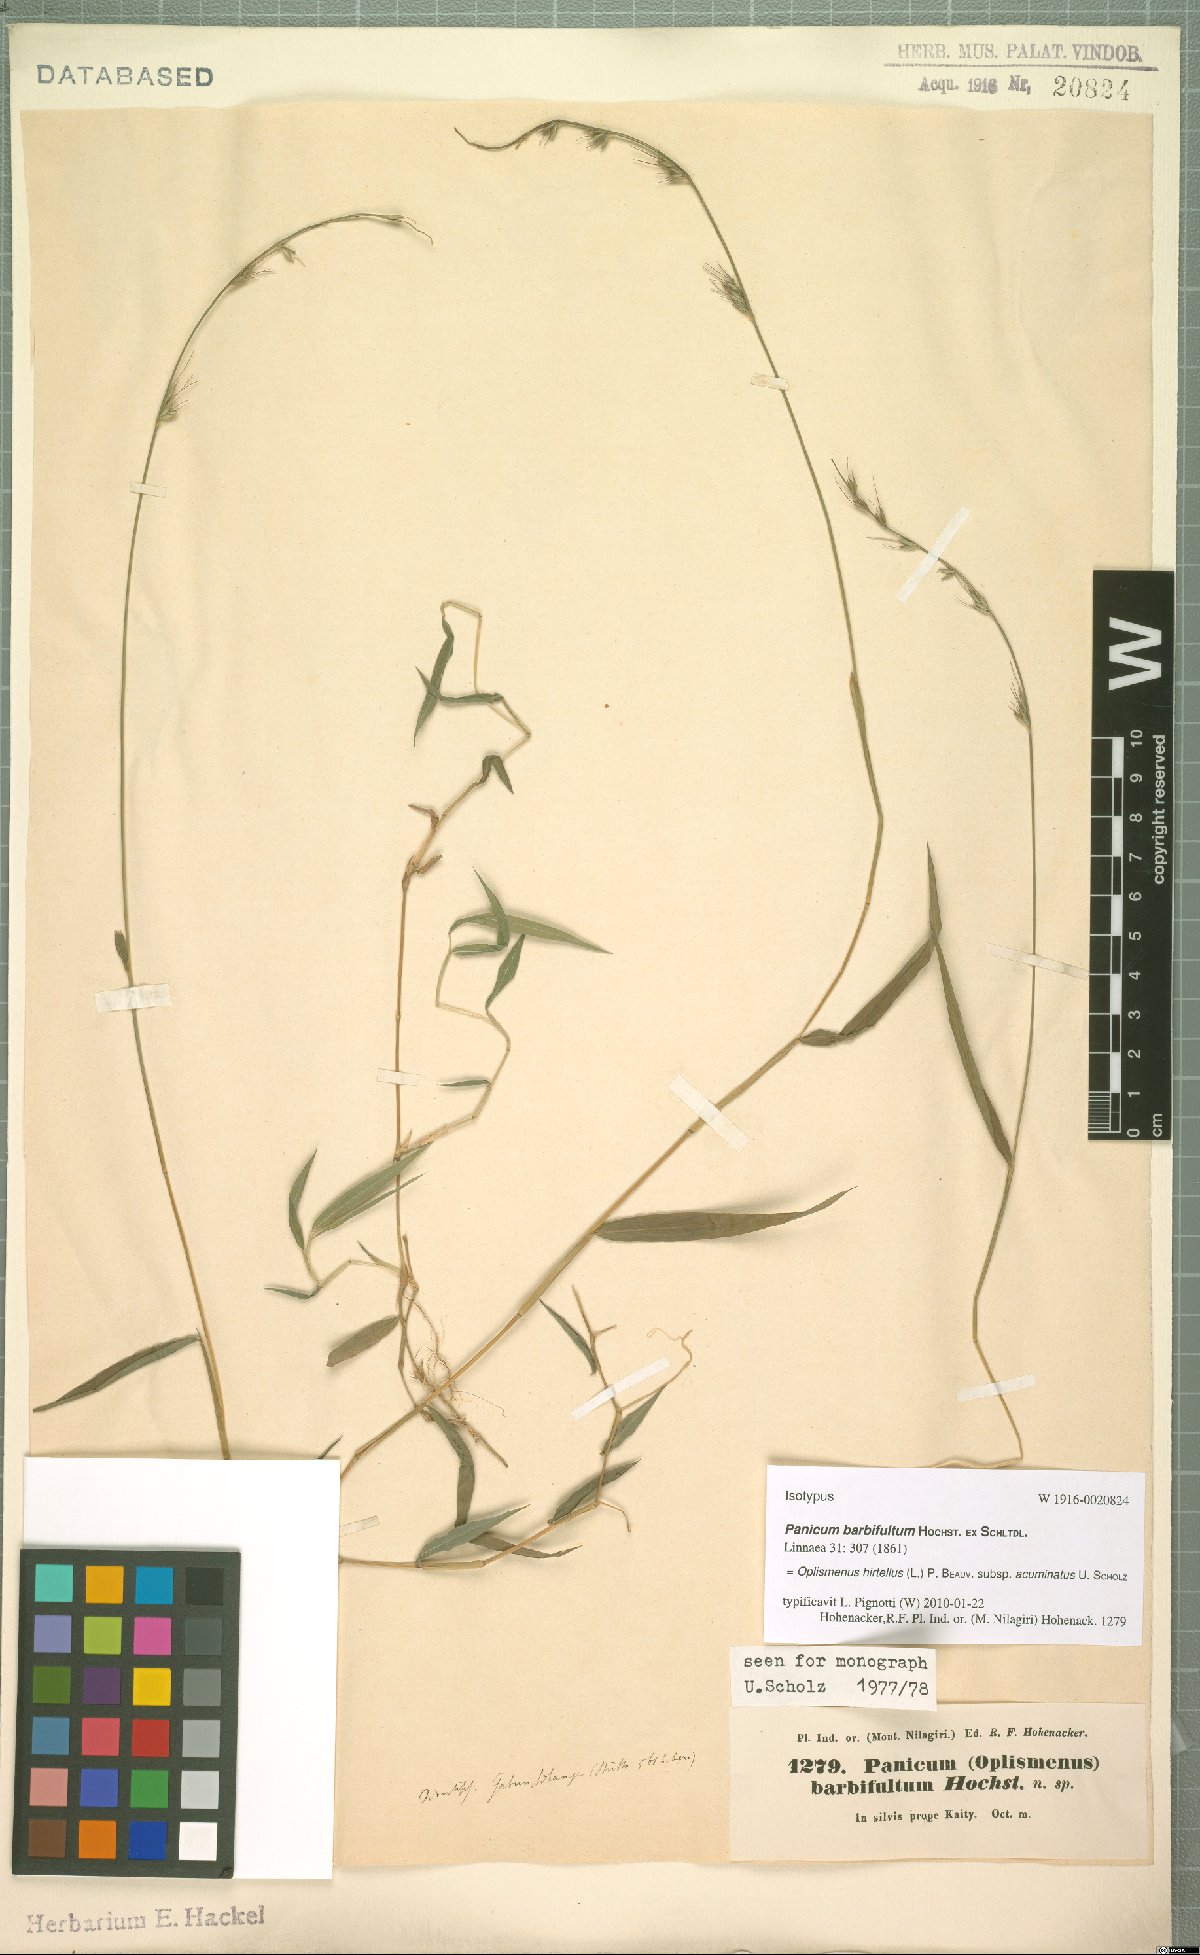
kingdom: Plantae
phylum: Tracheophyta
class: Liliopsida
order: Poales
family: Poaceae
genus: Oplismenus
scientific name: Oplismenus hirtellus
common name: Basketgrass
